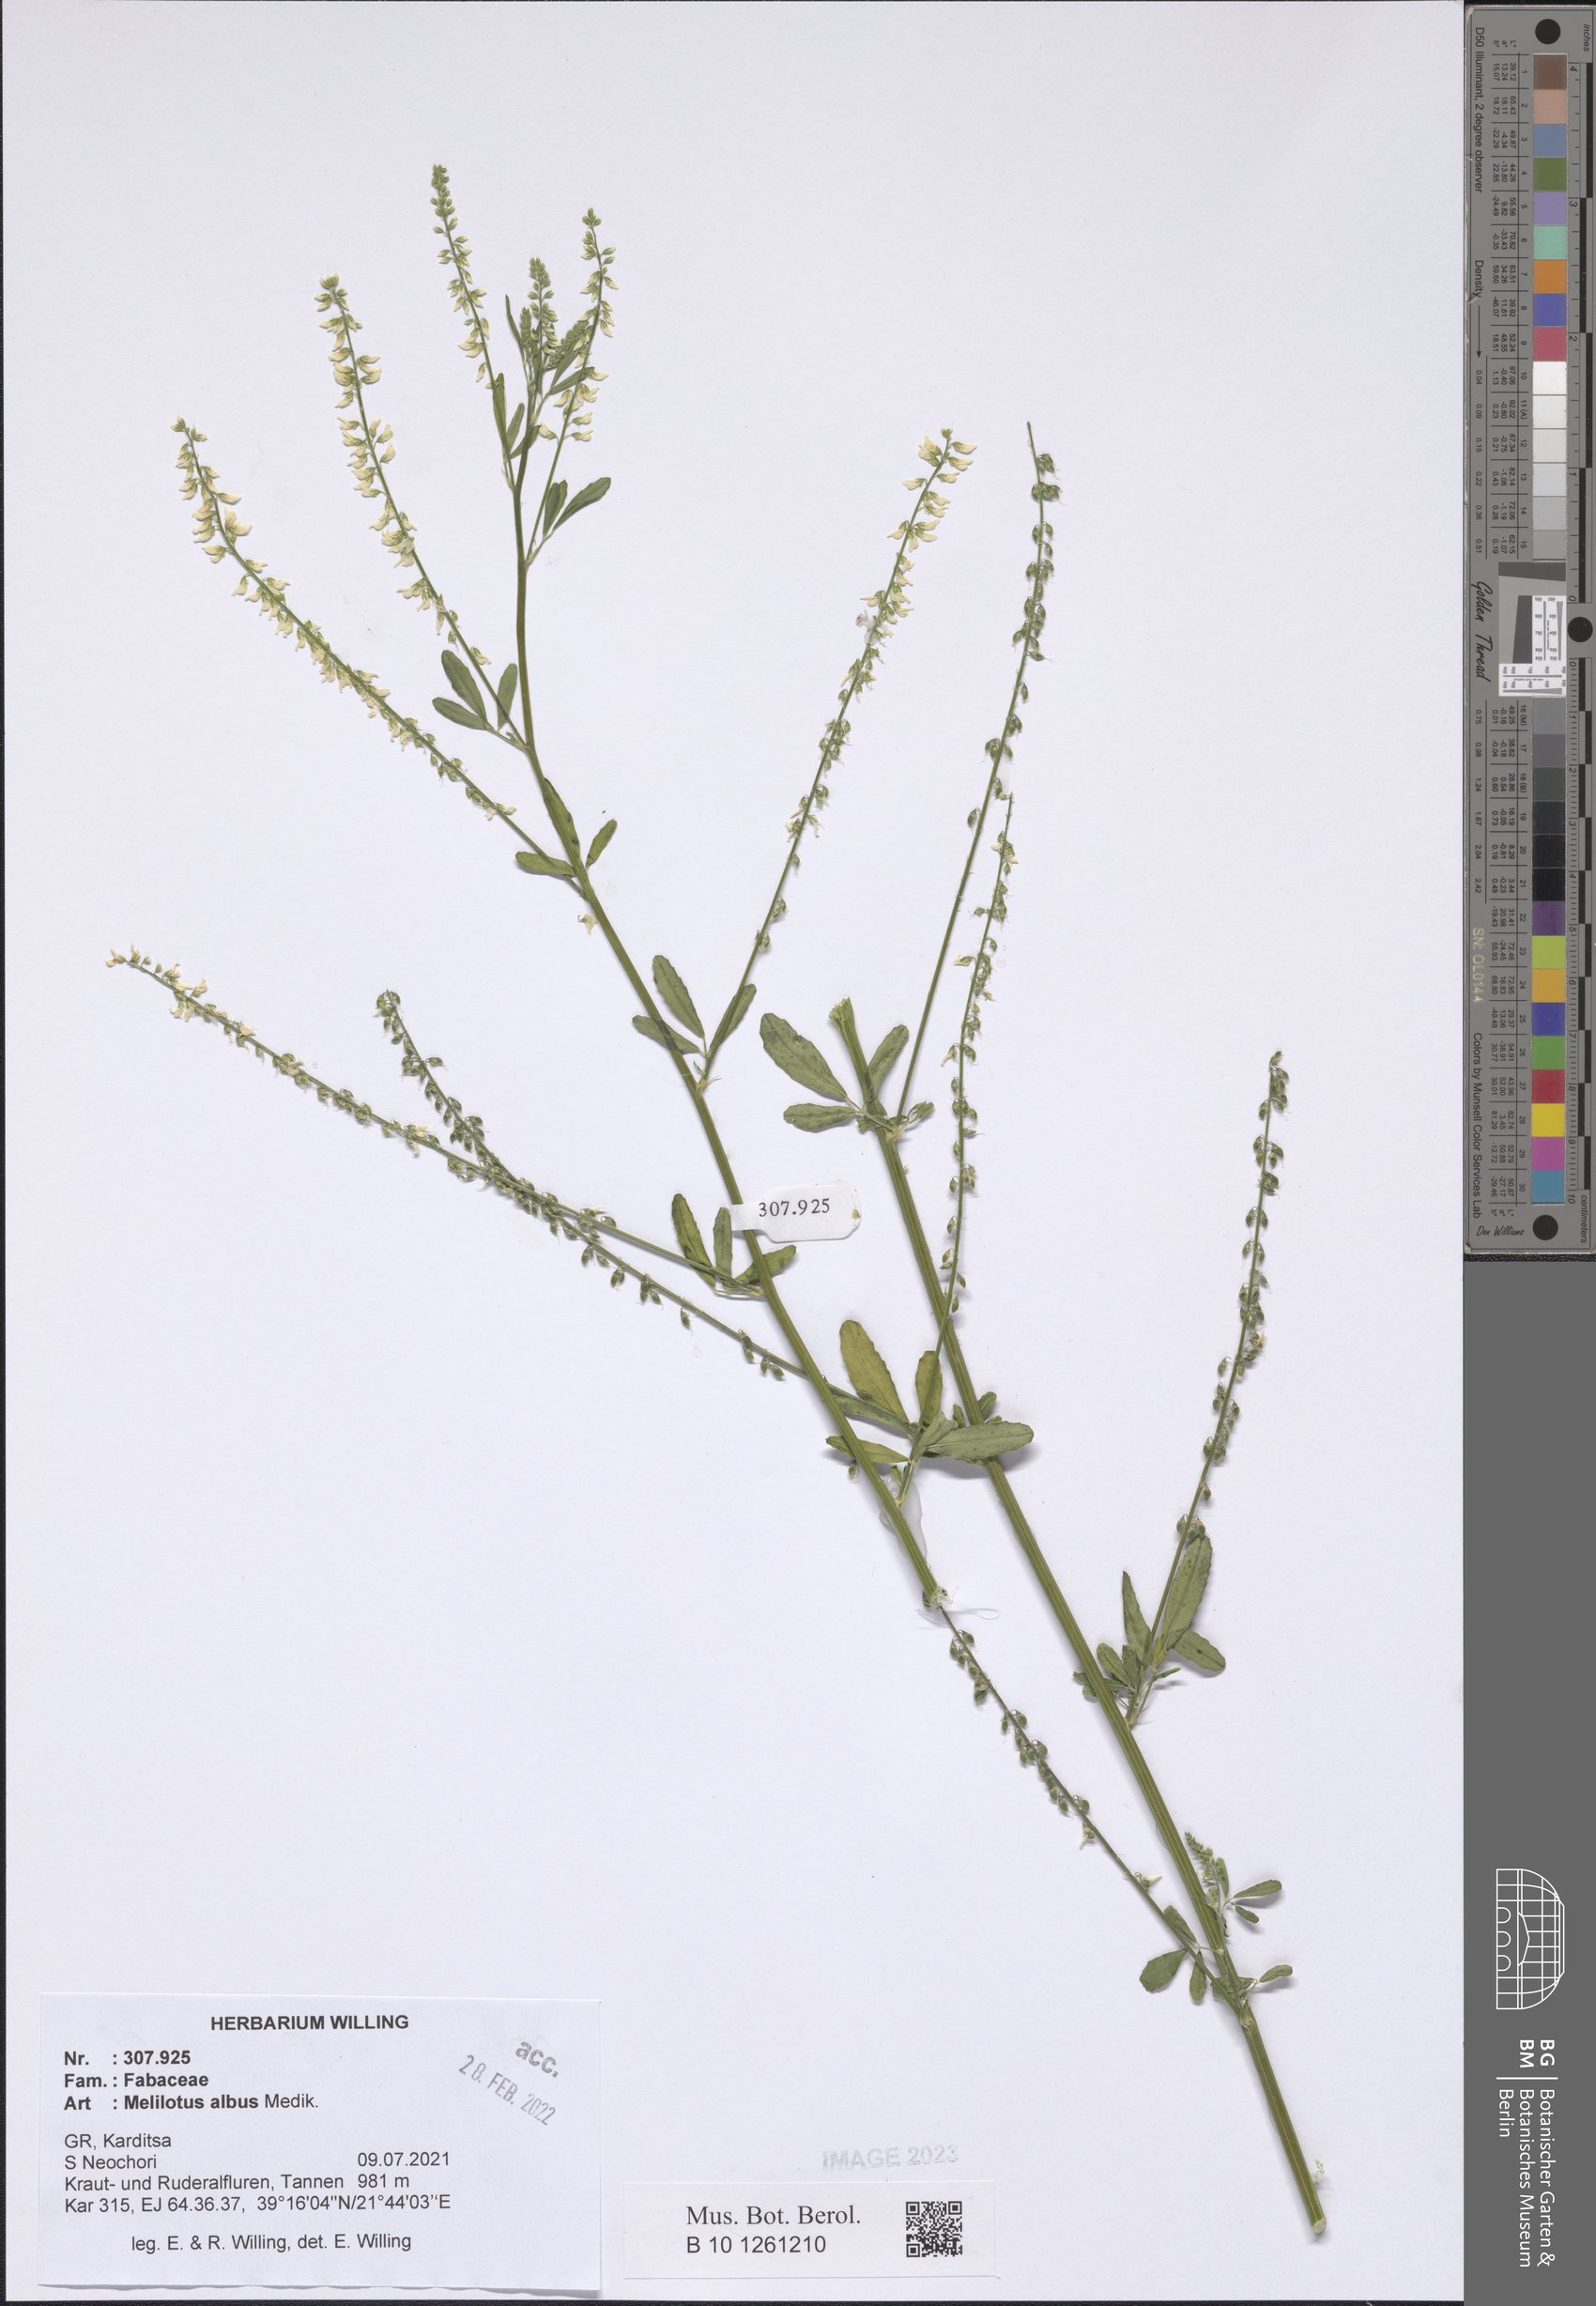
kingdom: Plantae
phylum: Tracheophyta
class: Magnoliopsida
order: Fabales
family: Fabaceae
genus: Melilotus
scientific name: Melilotus albus
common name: White melilot
